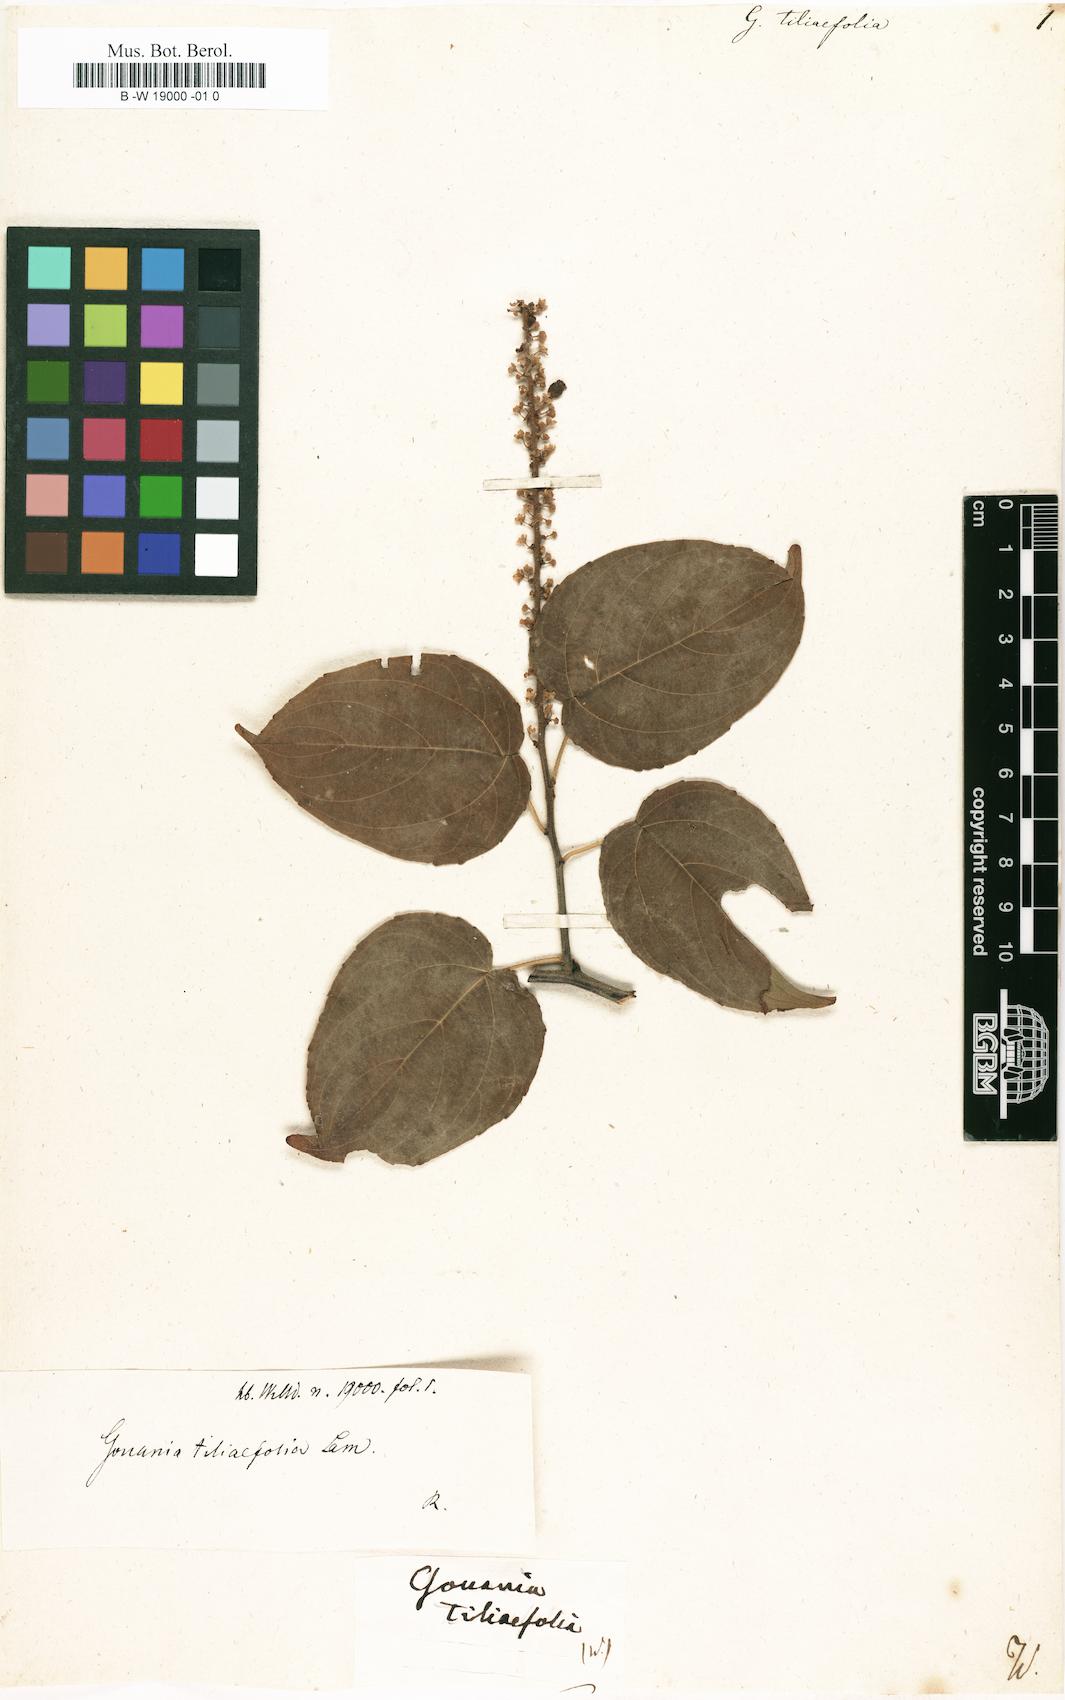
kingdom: Plantae
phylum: Tracheophyta
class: Magnoliopsida
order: Rosales
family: Rhamnaceae
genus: Gouania
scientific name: Gouania tiliifolia
